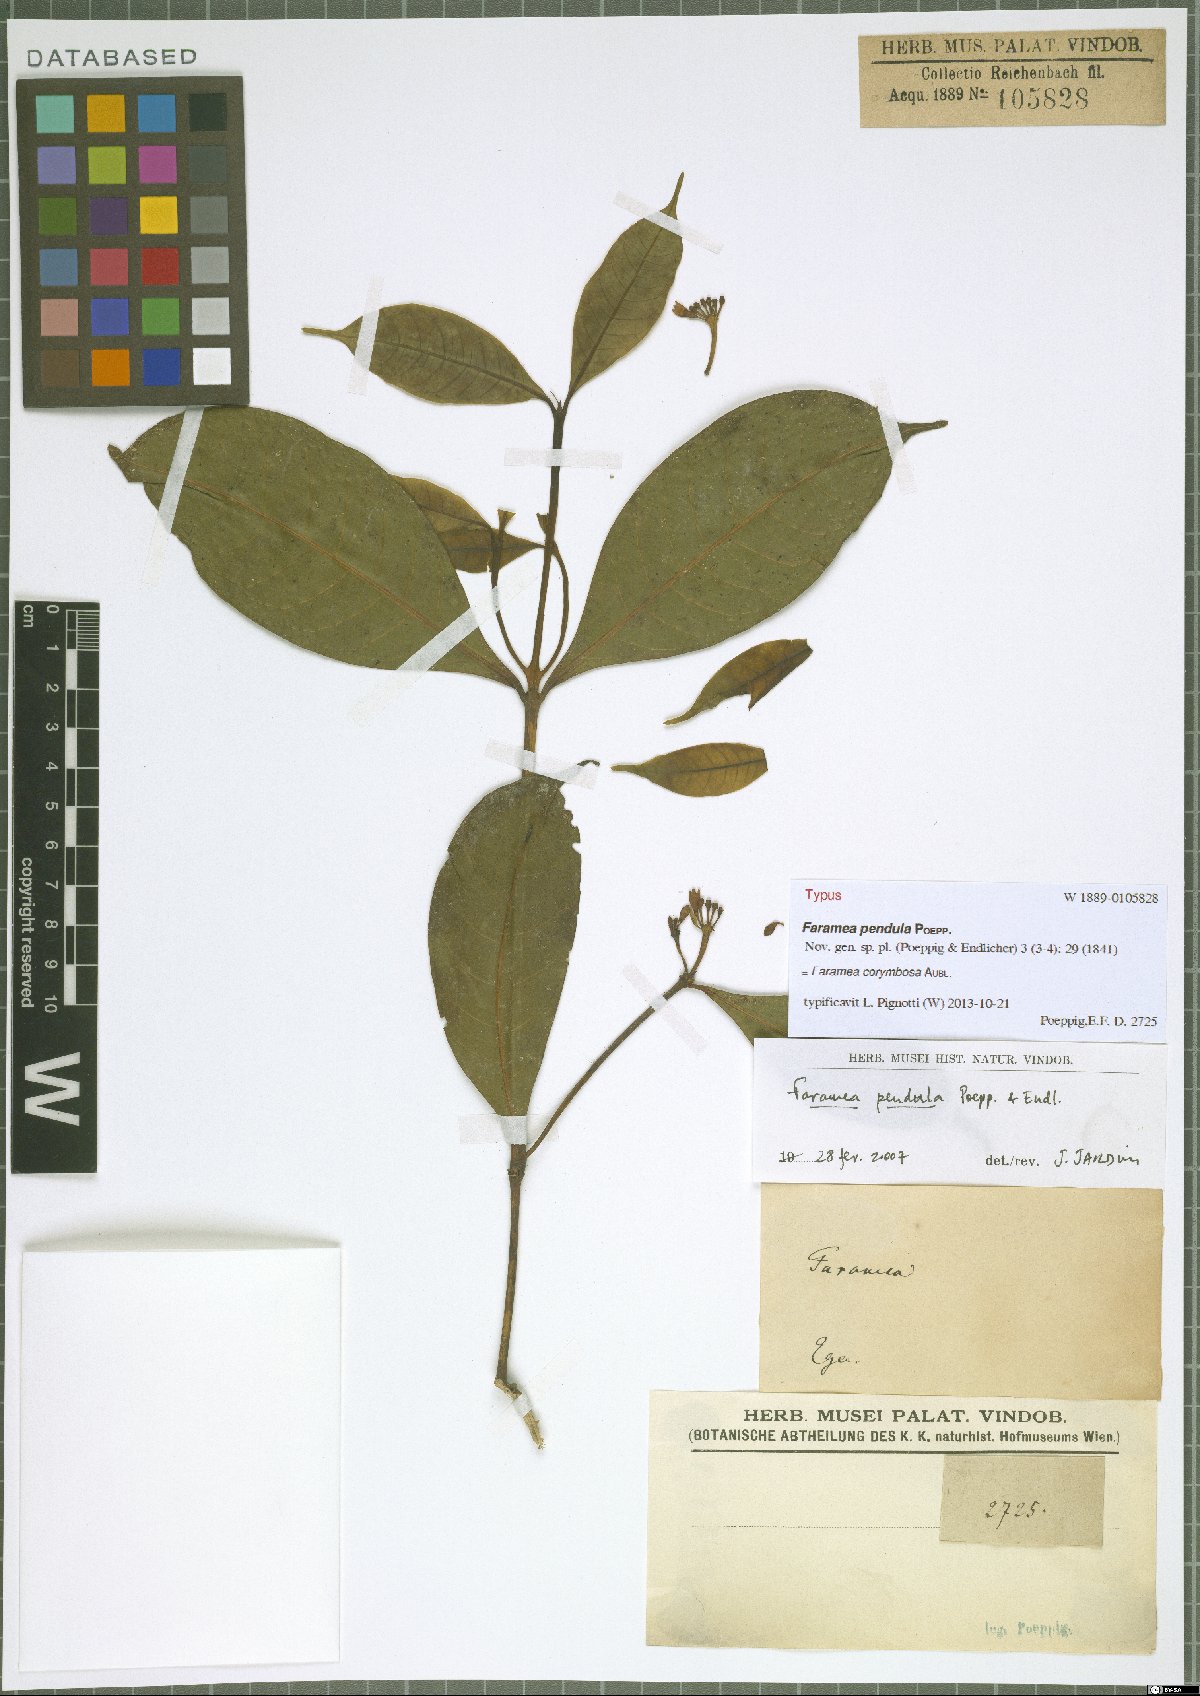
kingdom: Plantae
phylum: Tracheophyta
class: Magnoliopsida
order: Gentianales
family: Rubiaceae
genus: Faramea
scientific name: Faramea corymbosa
